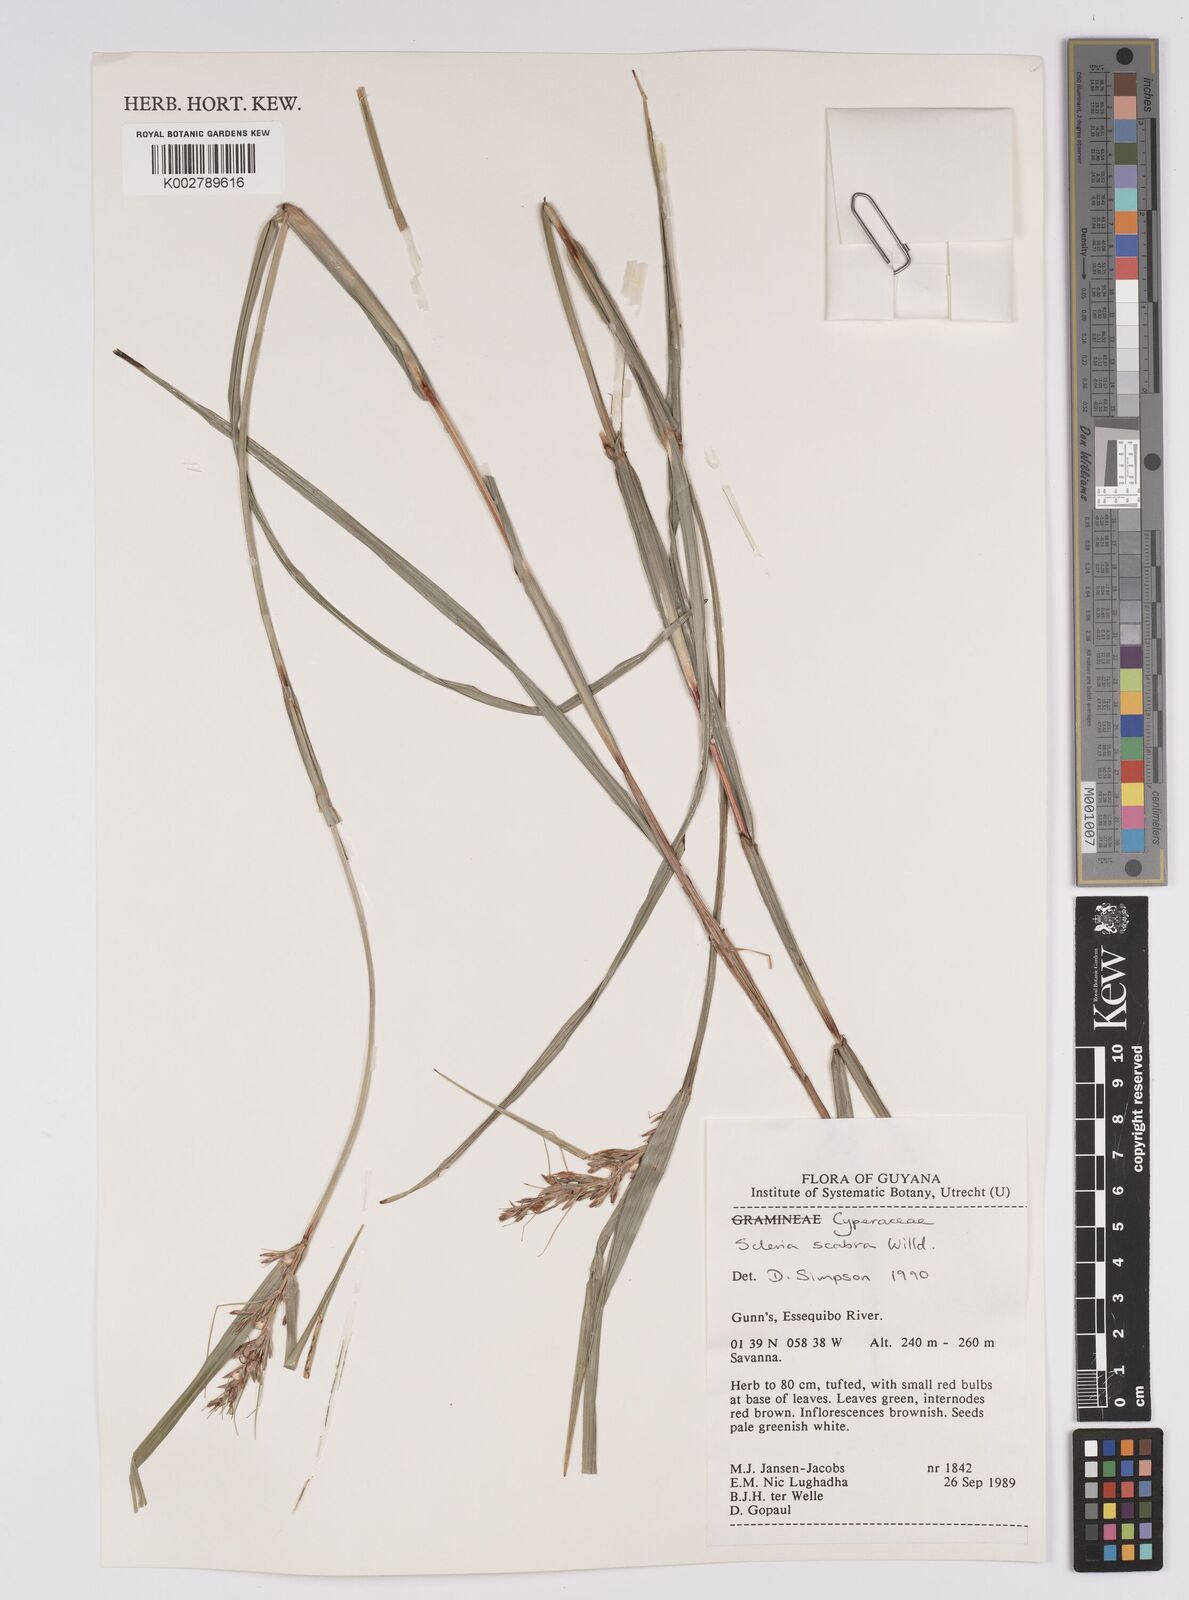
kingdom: Plantae
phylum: Tracheophyta
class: Liliopsida
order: Poales
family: Cyperaceae
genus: Scleria
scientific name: Scleria scabra
